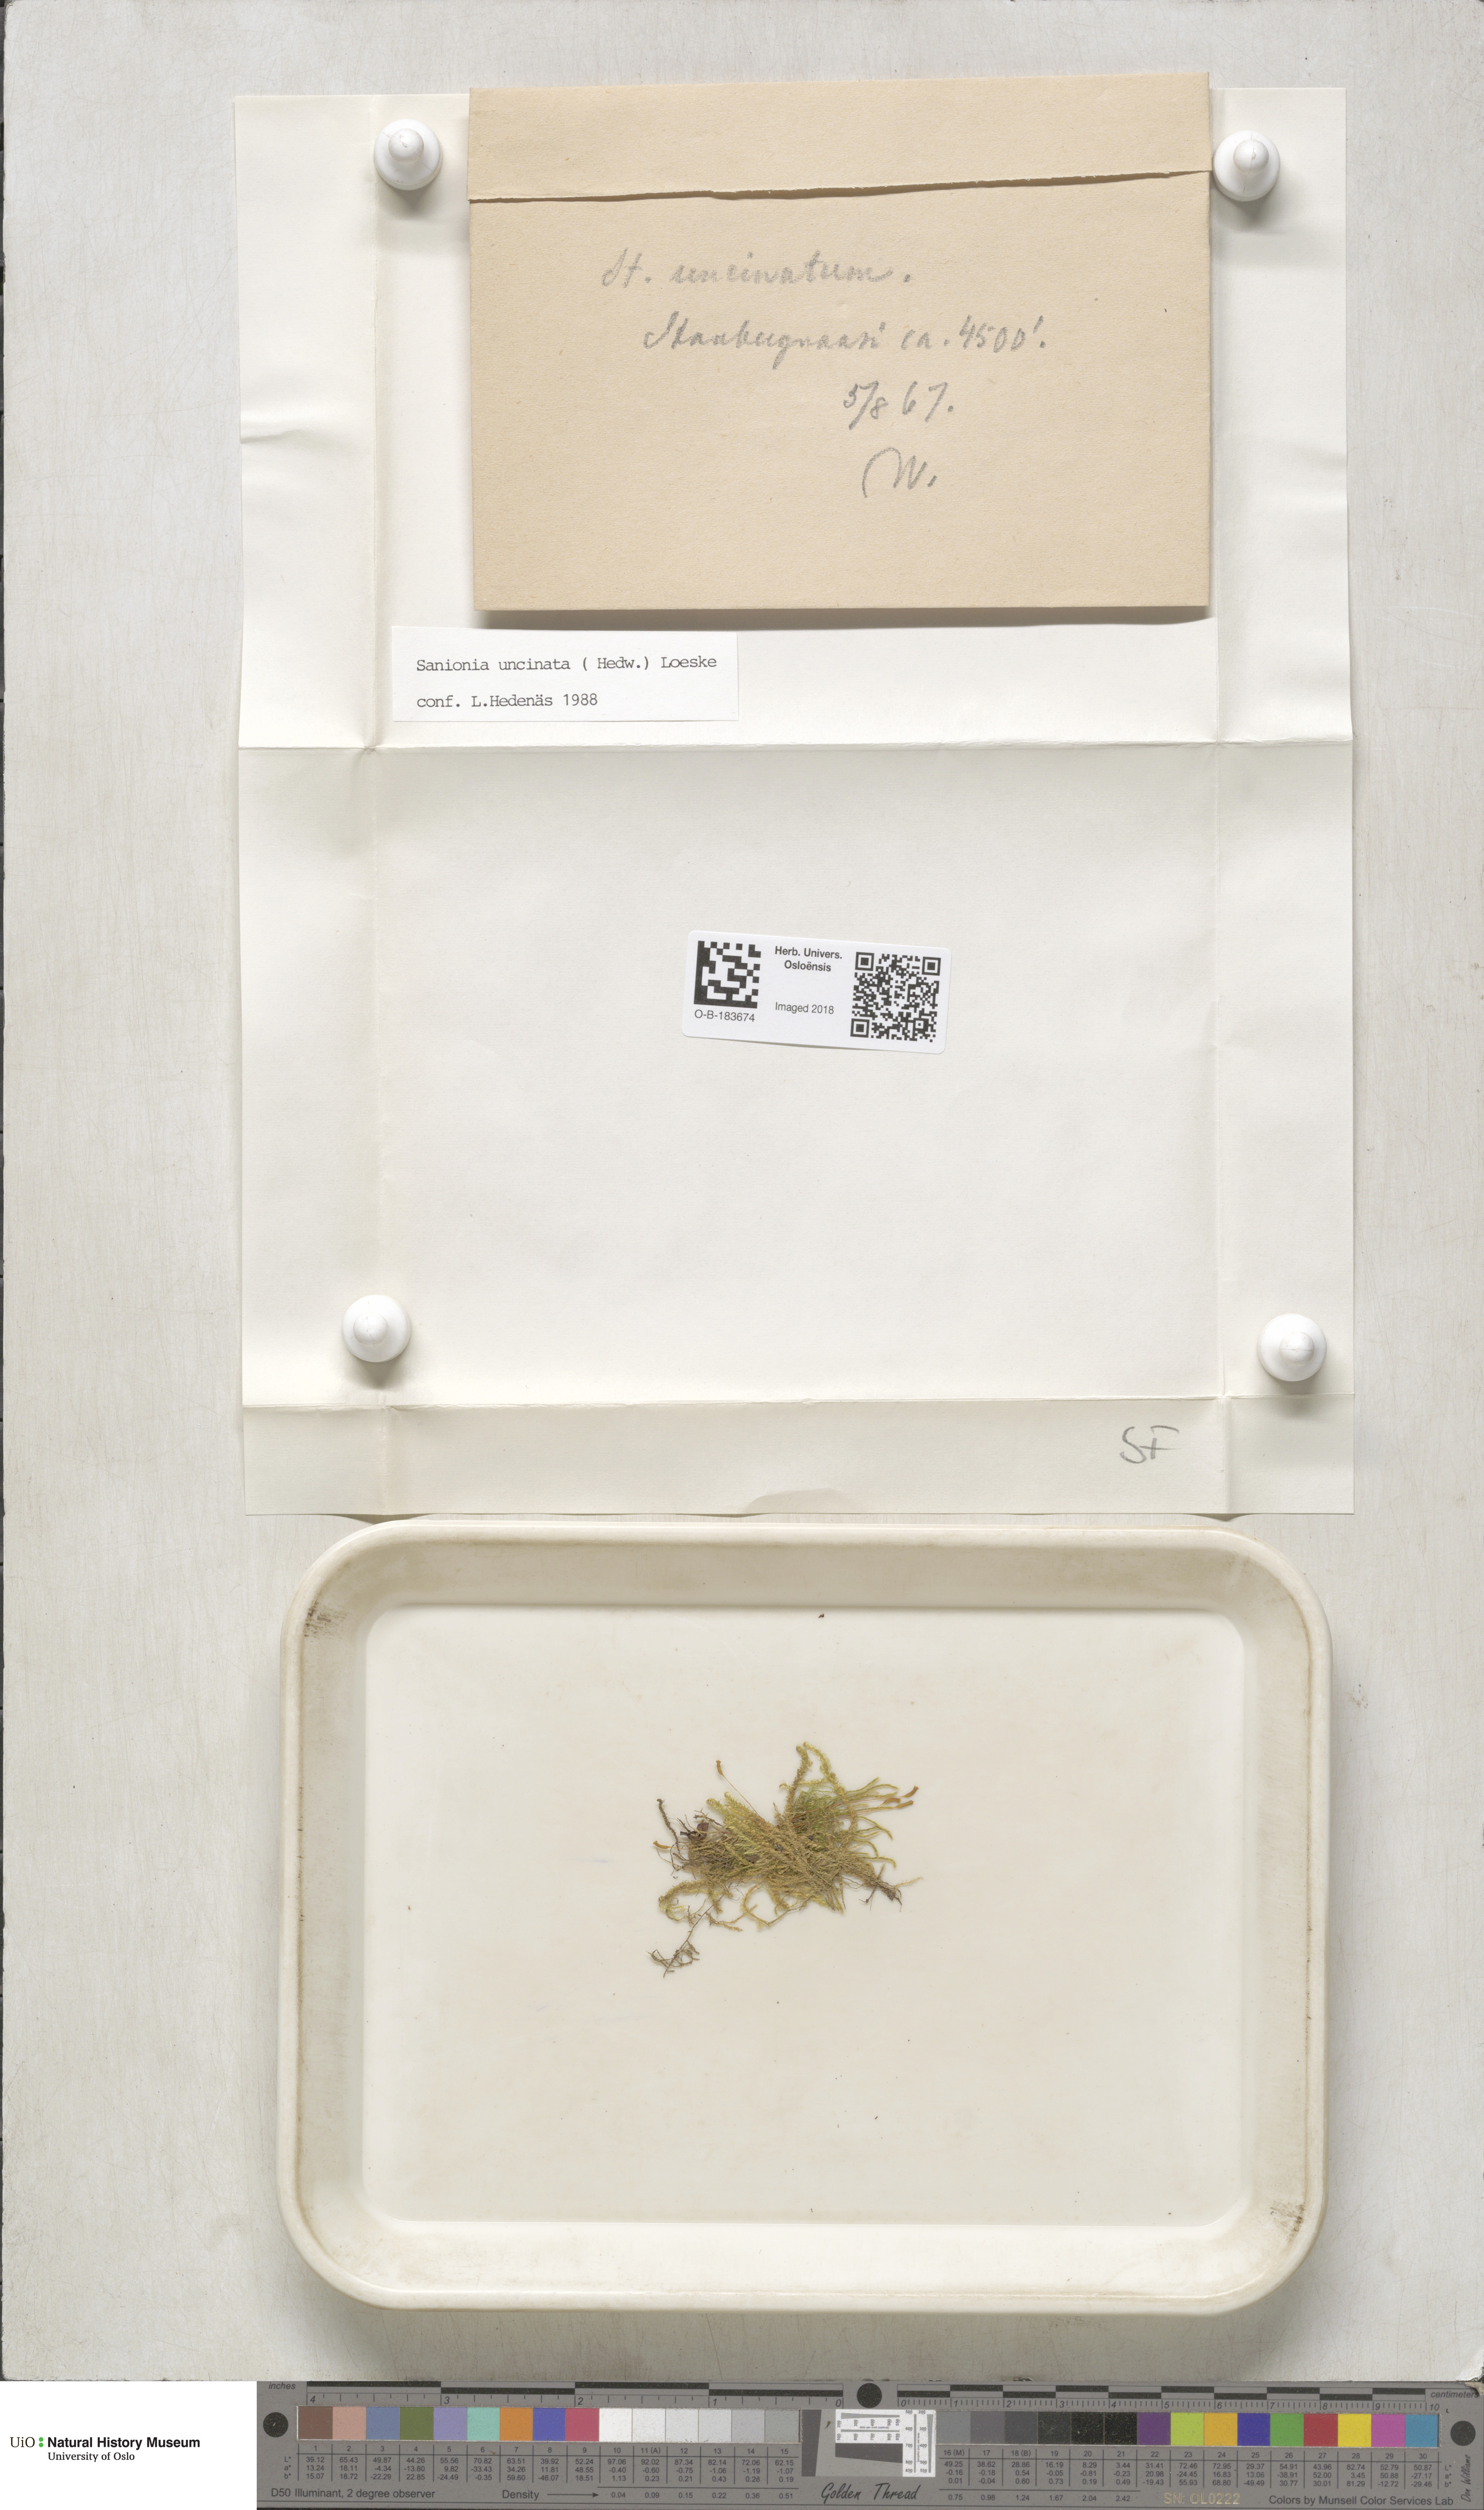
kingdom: Plantae
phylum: Bryophyta
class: Bryopsida
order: Hypnales
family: Scorpidiaceae
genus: Sanionia
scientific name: Sanionia uncinata
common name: Sickle moss
